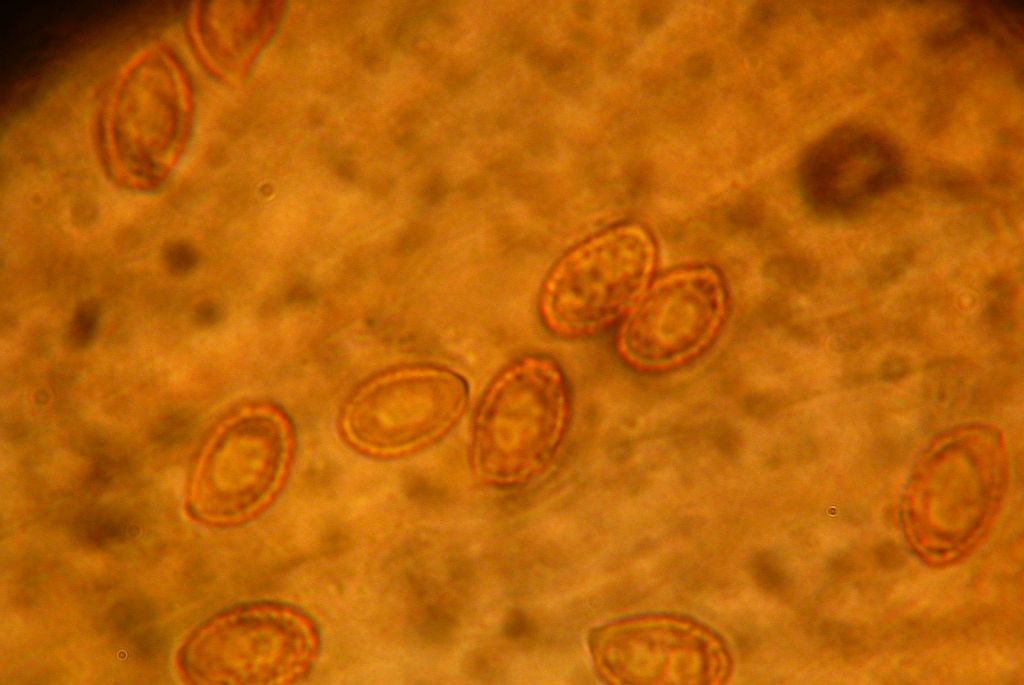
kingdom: Fungi
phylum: Basidiomycota
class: Agaricomycetes
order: Agaricales
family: Cortinariaceae
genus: Cortinarius
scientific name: Cortinarius circinans
